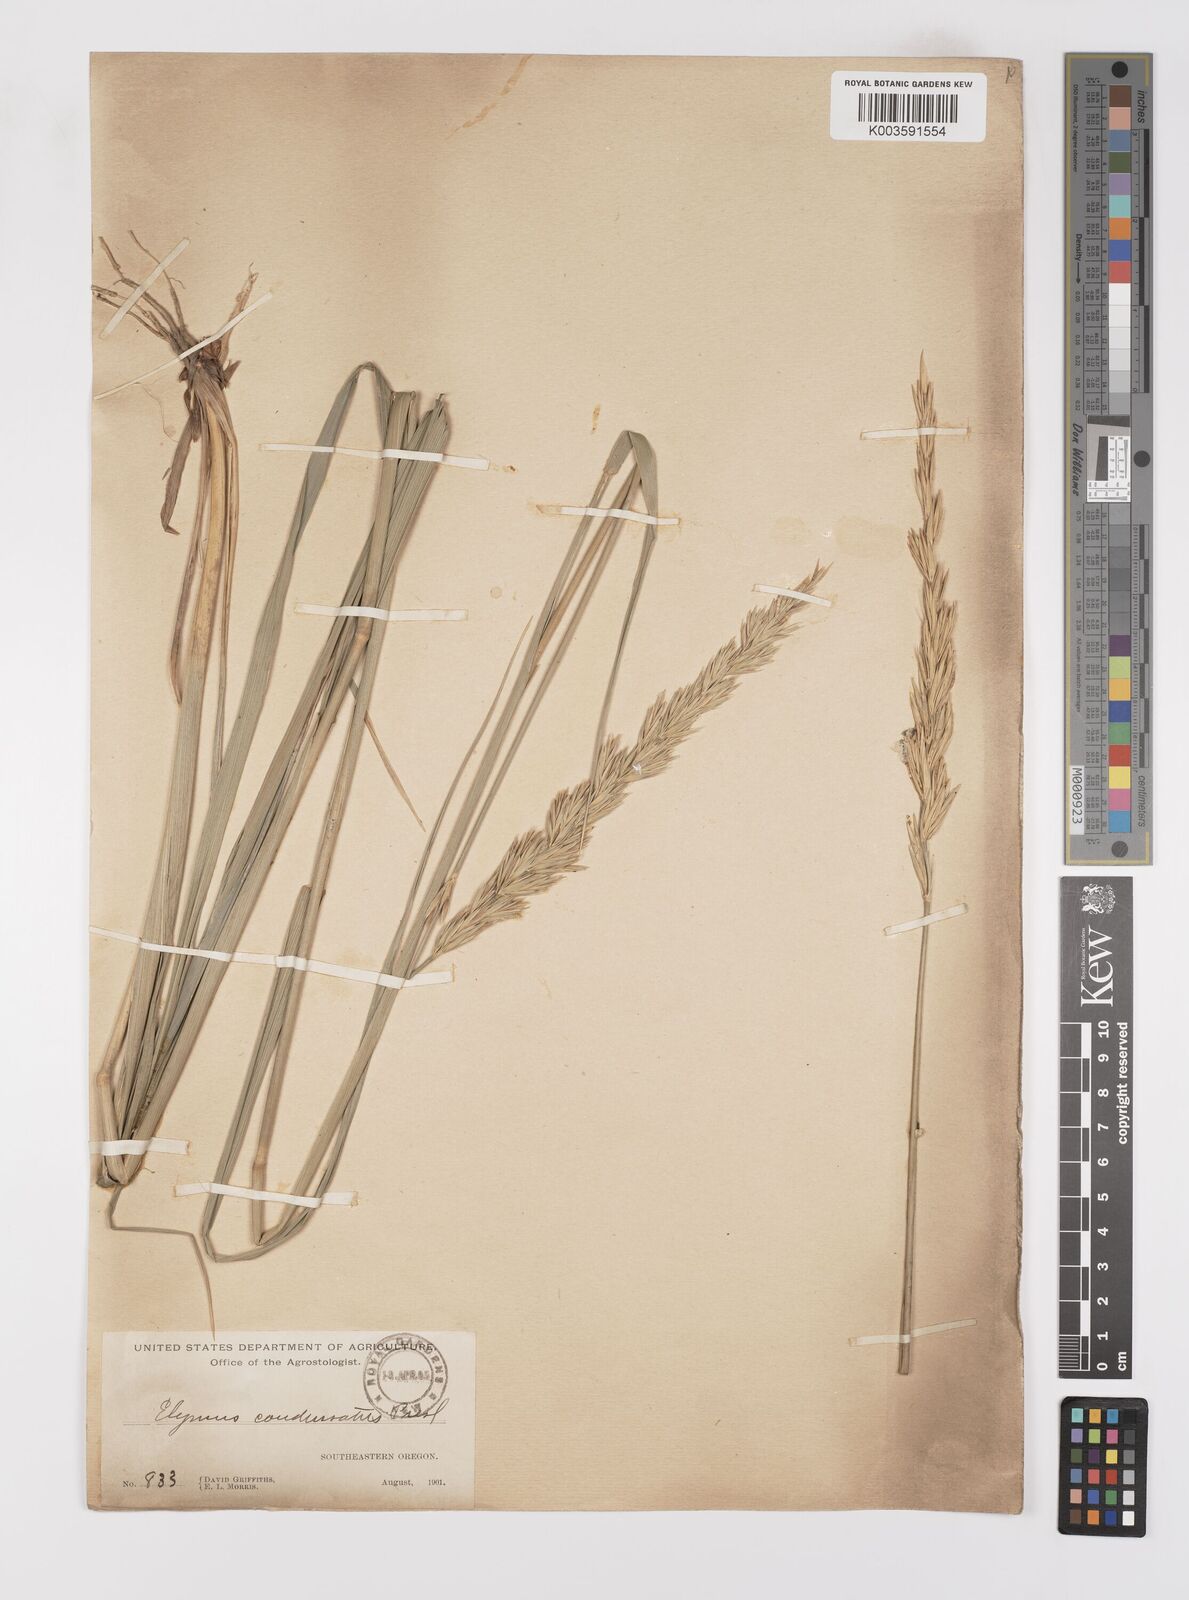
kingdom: Plantae
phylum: Tracheophyta
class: Liliopsida
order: Poales
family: Poaceae
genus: Leymus
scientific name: Leymus condensatus
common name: Giant wild rye
